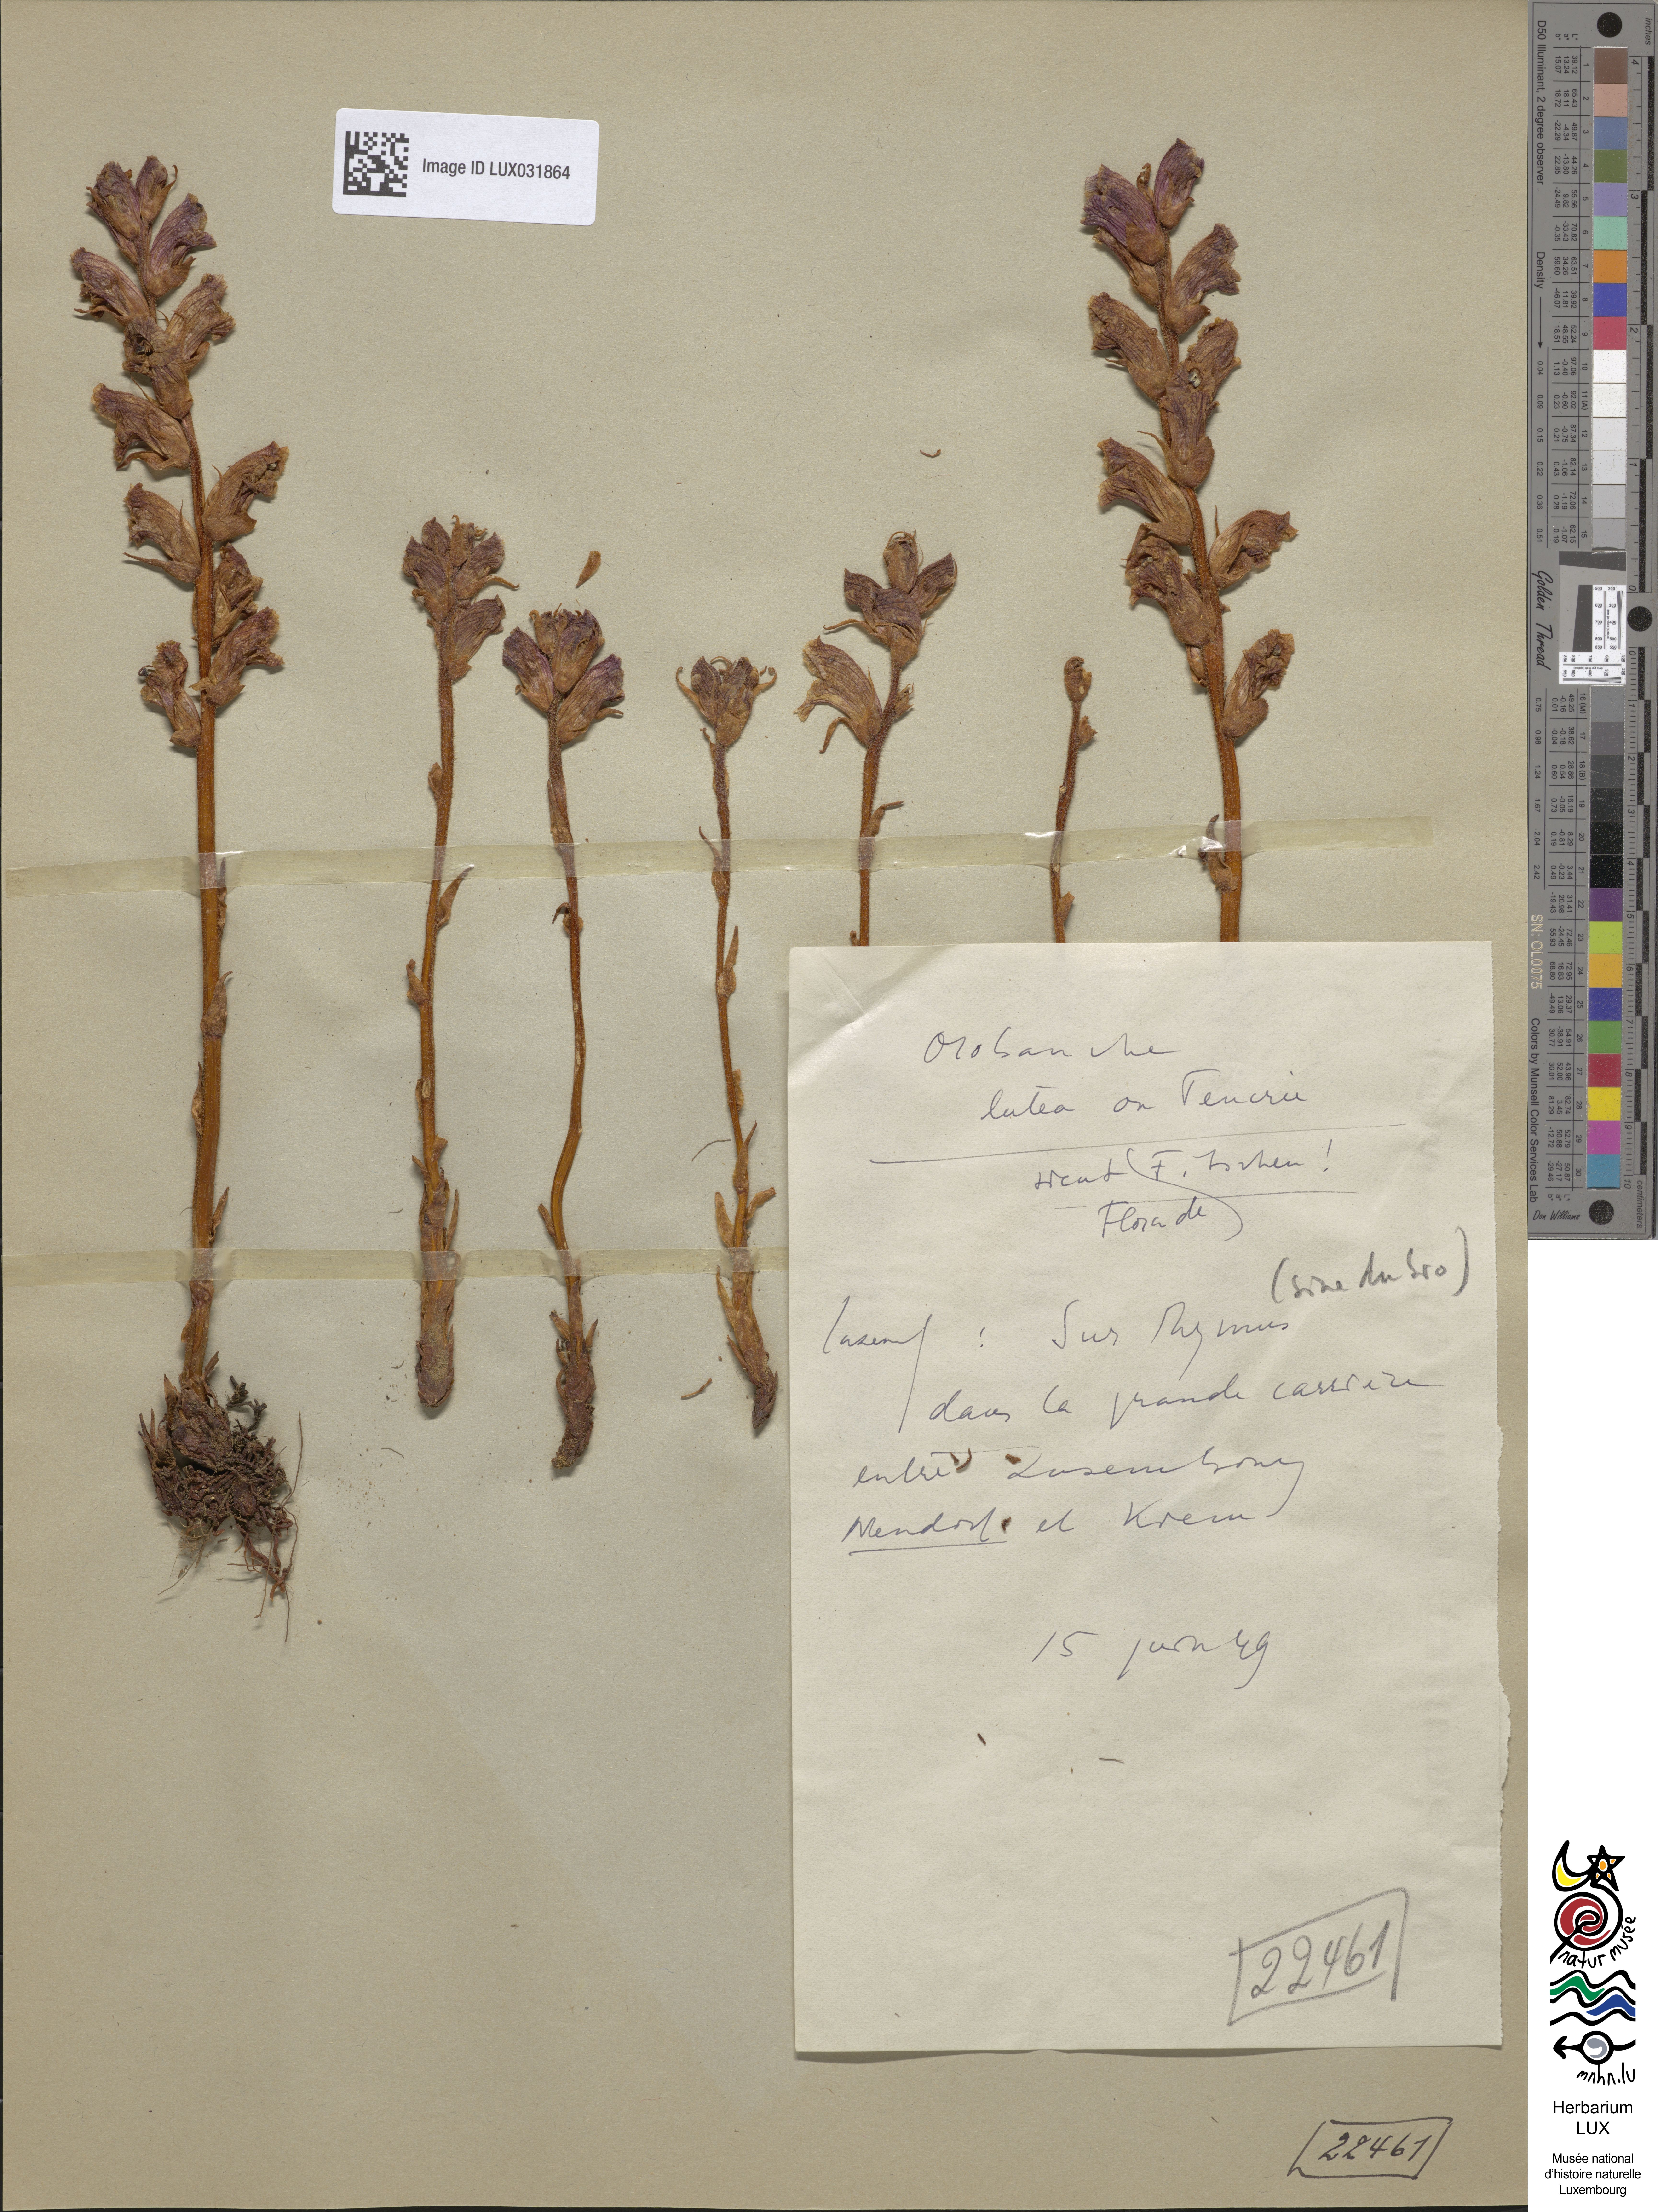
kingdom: Plantae
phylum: Tracheophyta
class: Magnoliopsida
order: Lamiales
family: Orobanchaceae
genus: Orobanche
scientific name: Orobanche teucrii
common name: Germander broomrape
